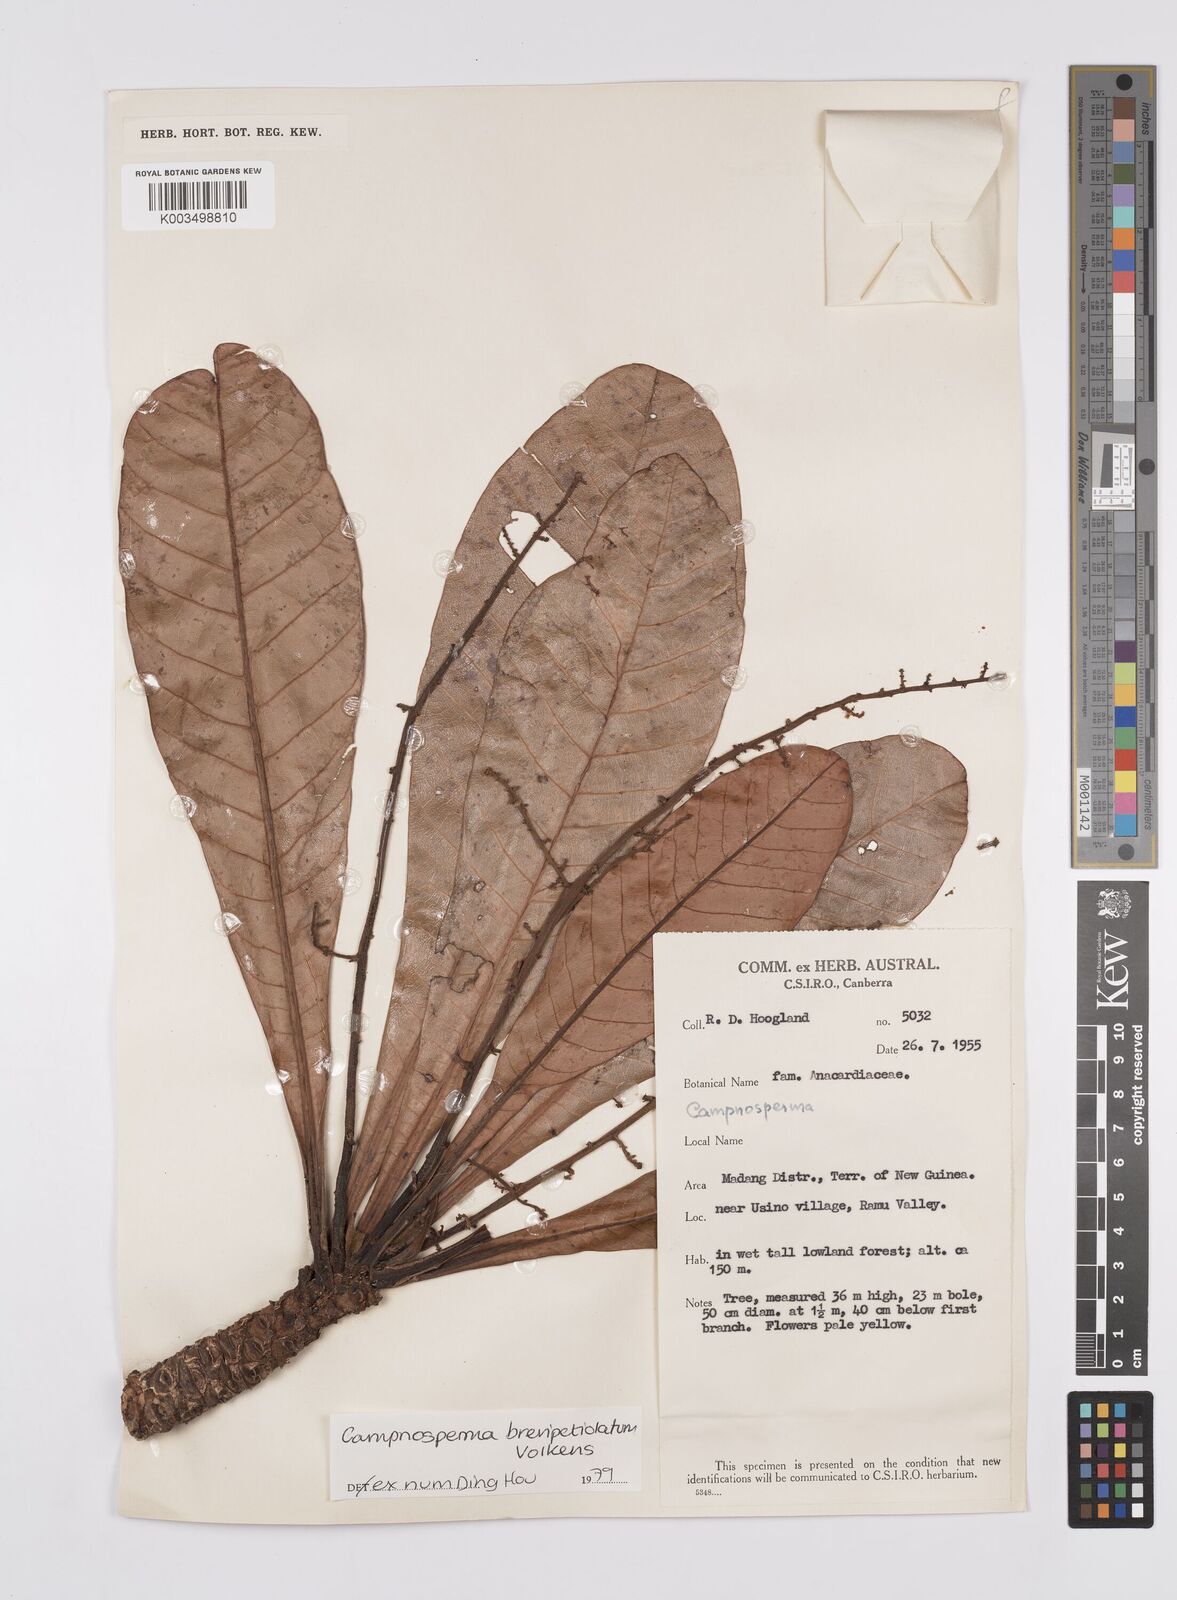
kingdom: Plantae
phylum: Tracheophyta
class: Magnoliopsida
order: Sapindales
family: Anacardiaceae
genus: Campnosperma
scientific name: Campnosperma brevipetiolatum
